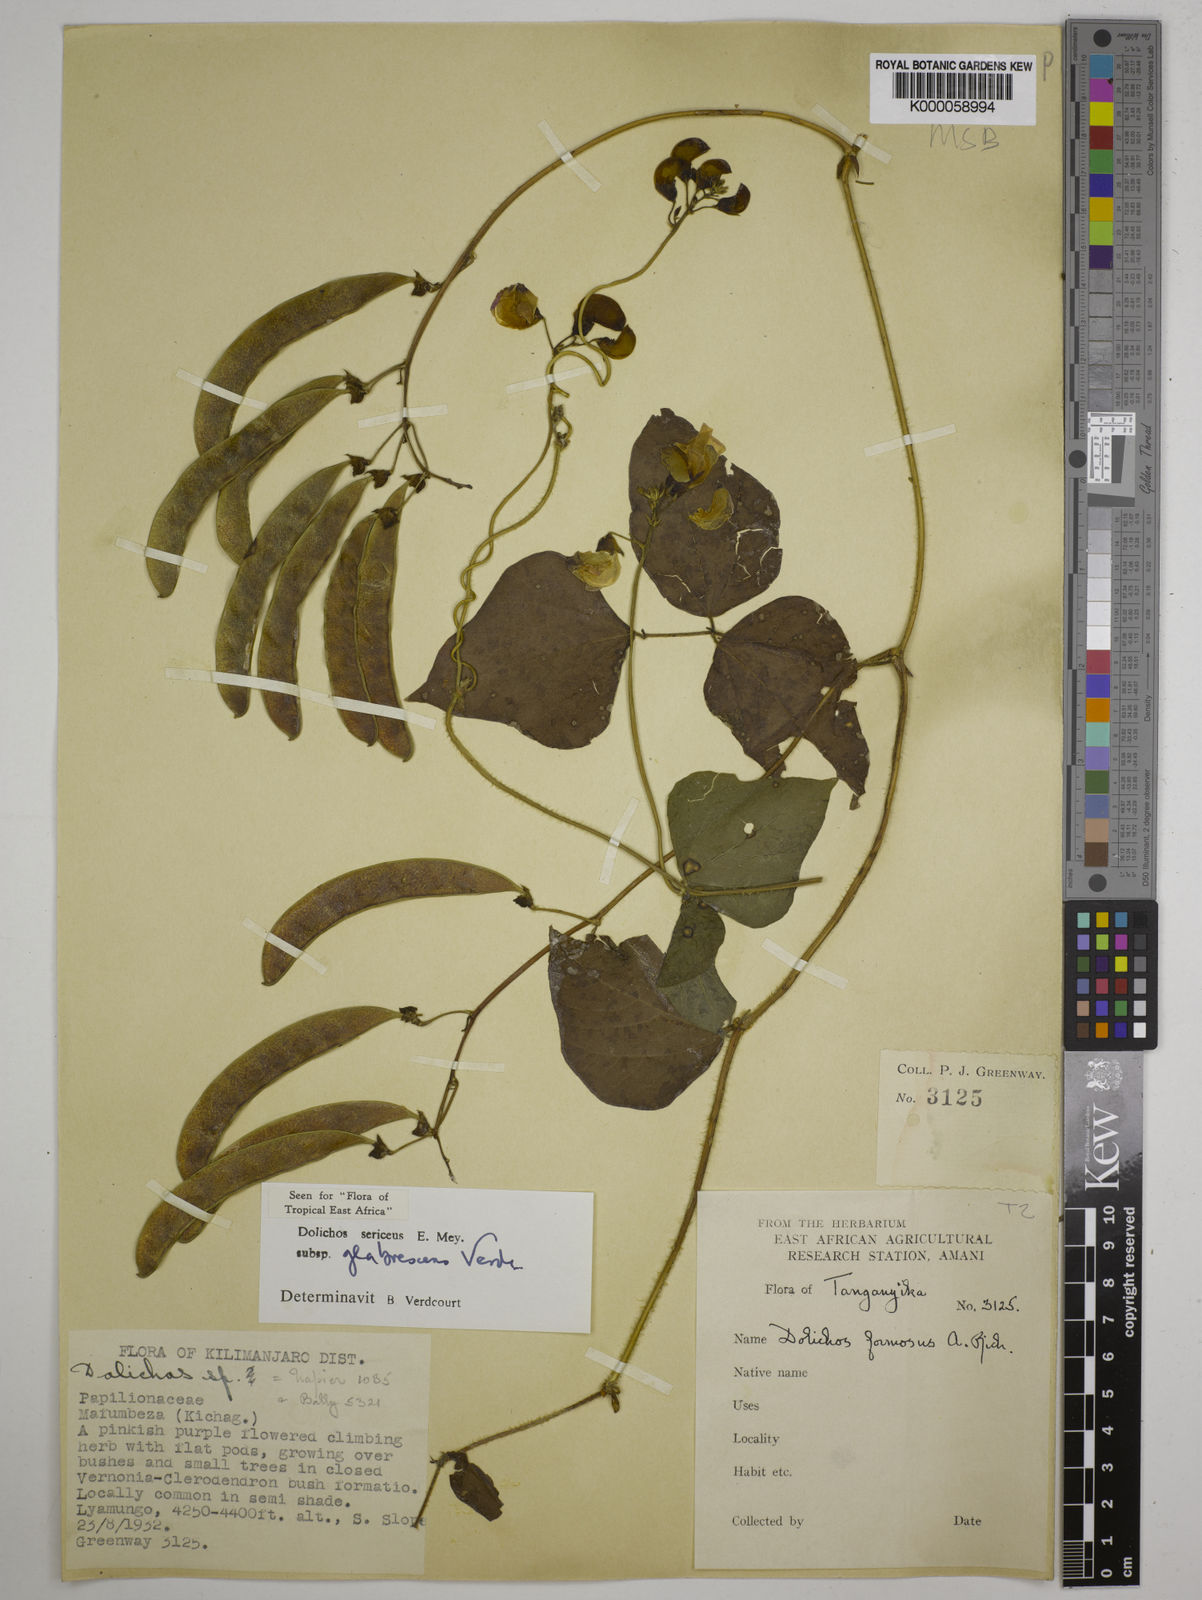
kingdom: Plantae
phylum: Tracheophyta
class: Magnoliopsida
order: Fabales
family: Fabaceae
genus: Dolichos
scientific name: Dolichos sericeus
